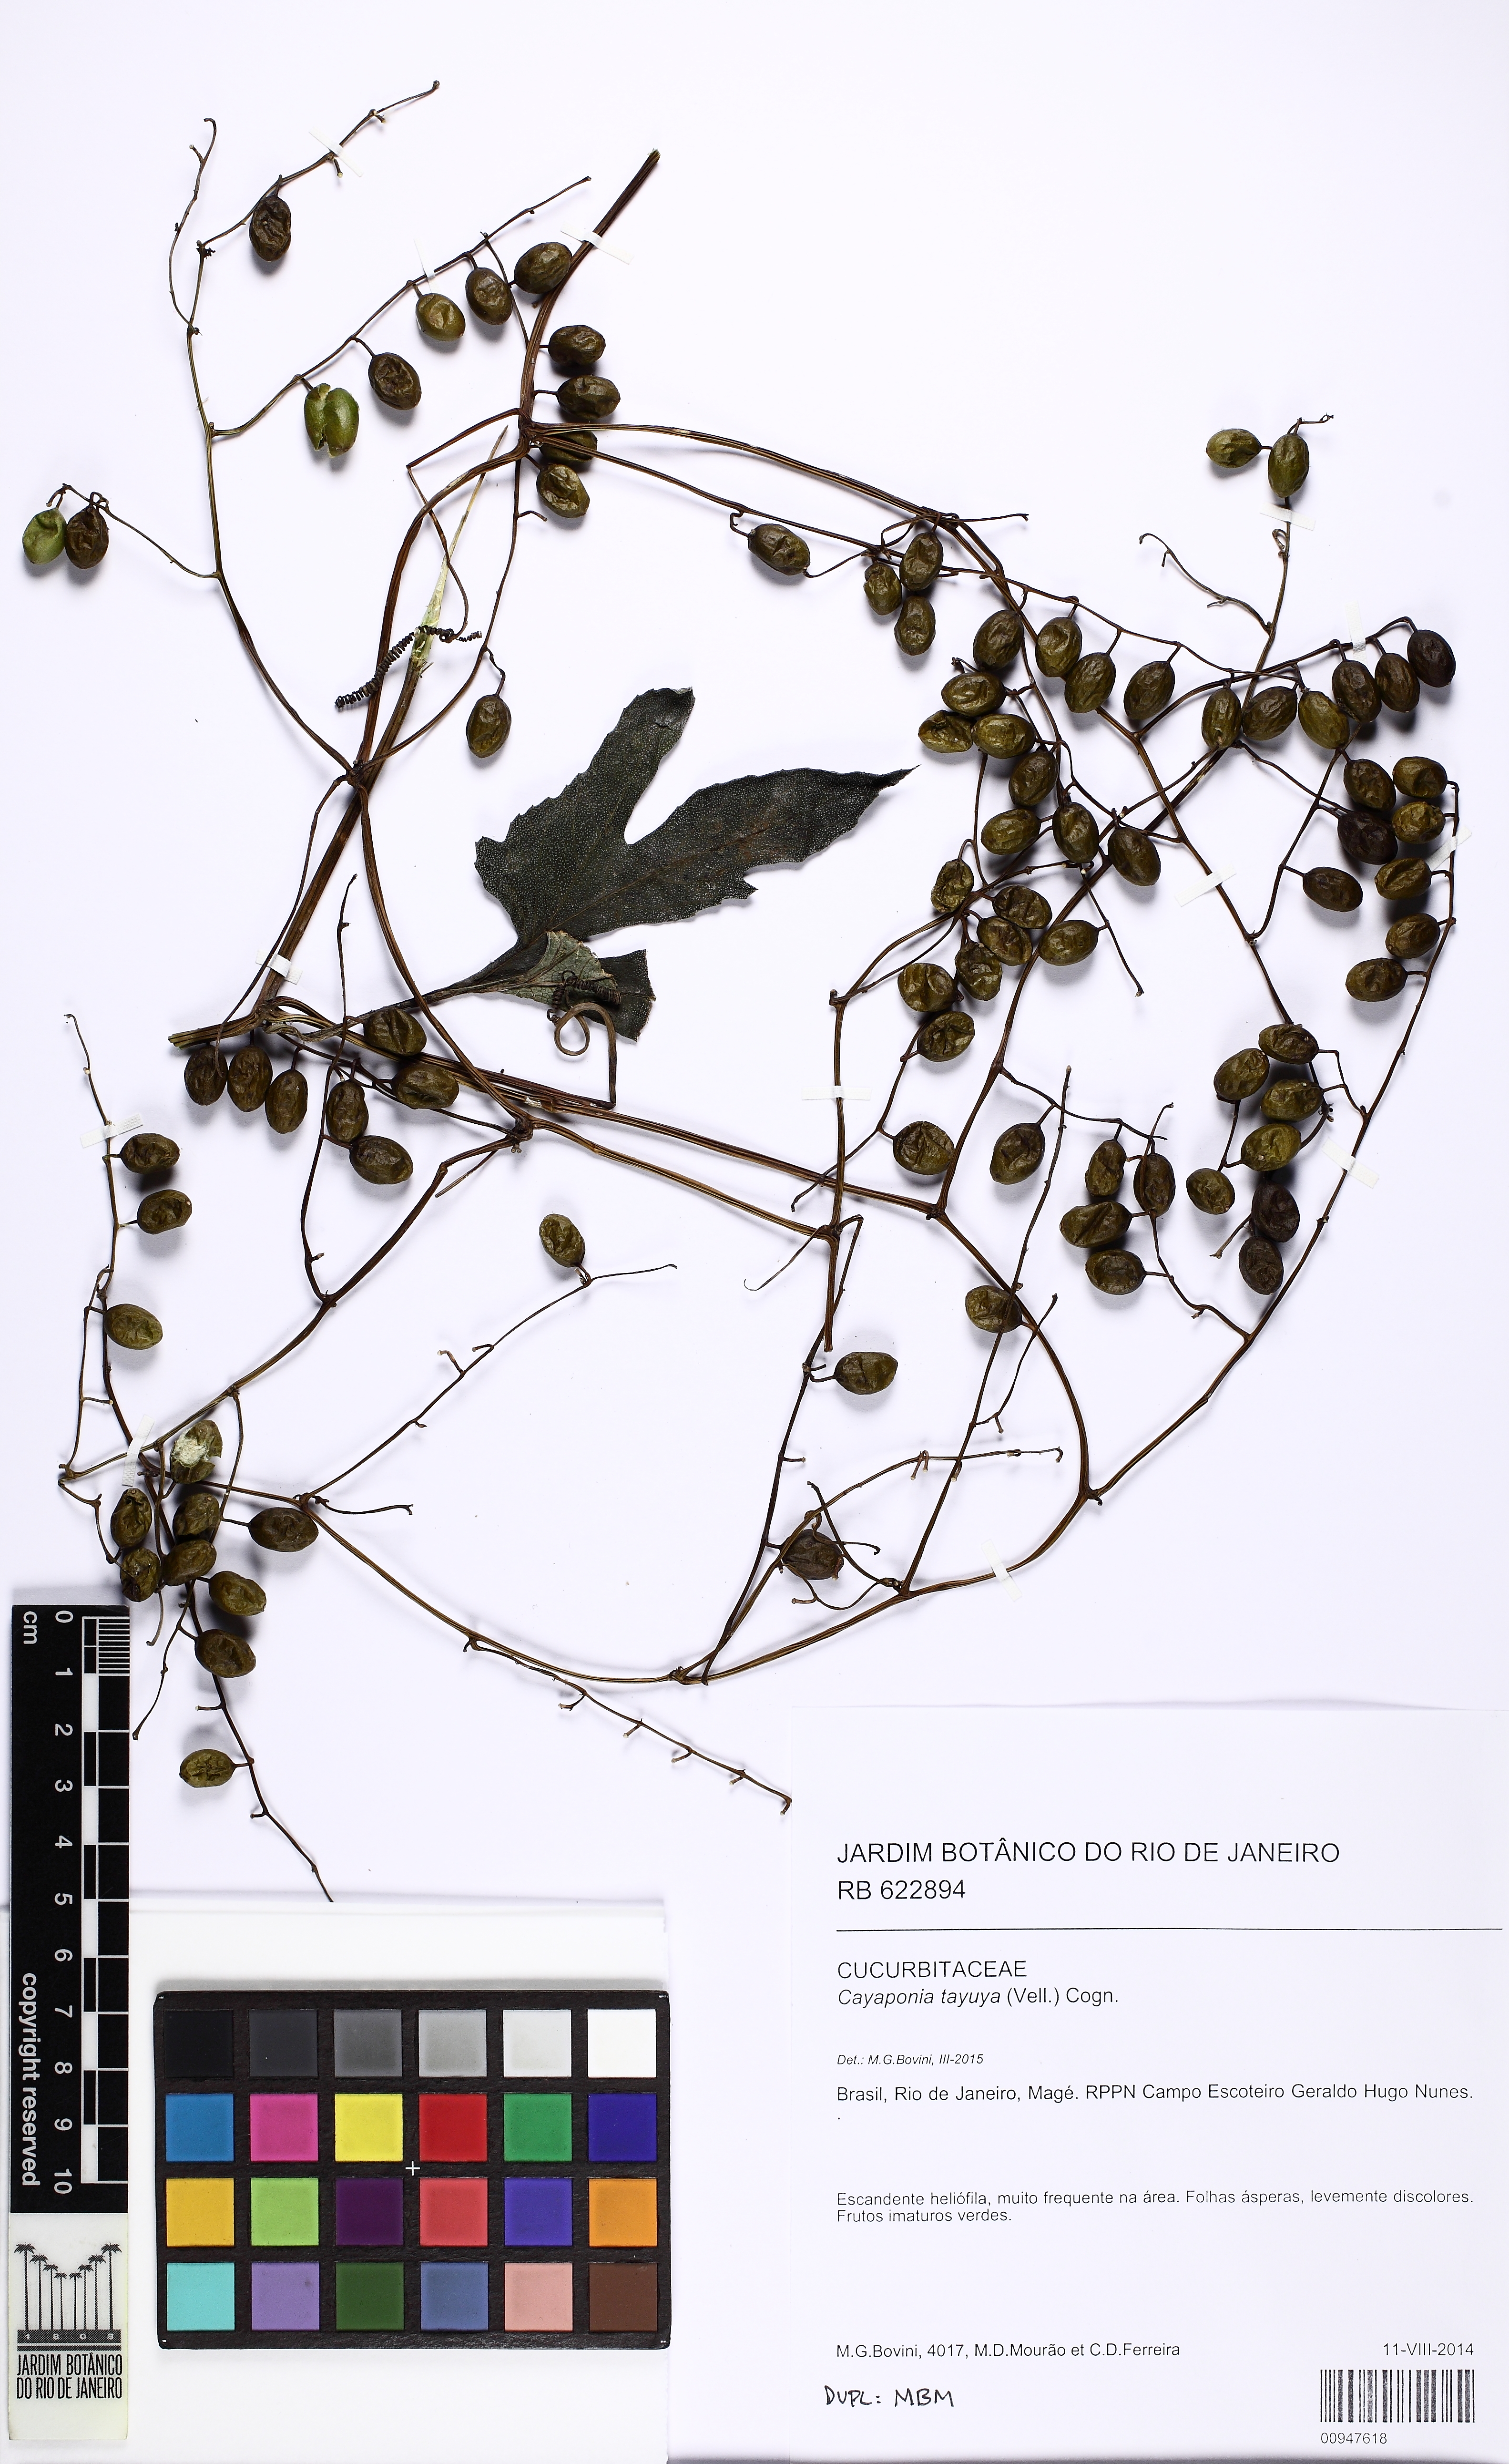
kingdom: Plantae
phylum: Tracheophyta
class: Magnoliopsida
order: Cucurbitales
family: Cucurbitaceae
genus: Cayaponia
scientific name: Cayaponia tayuya
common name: Tayuya
